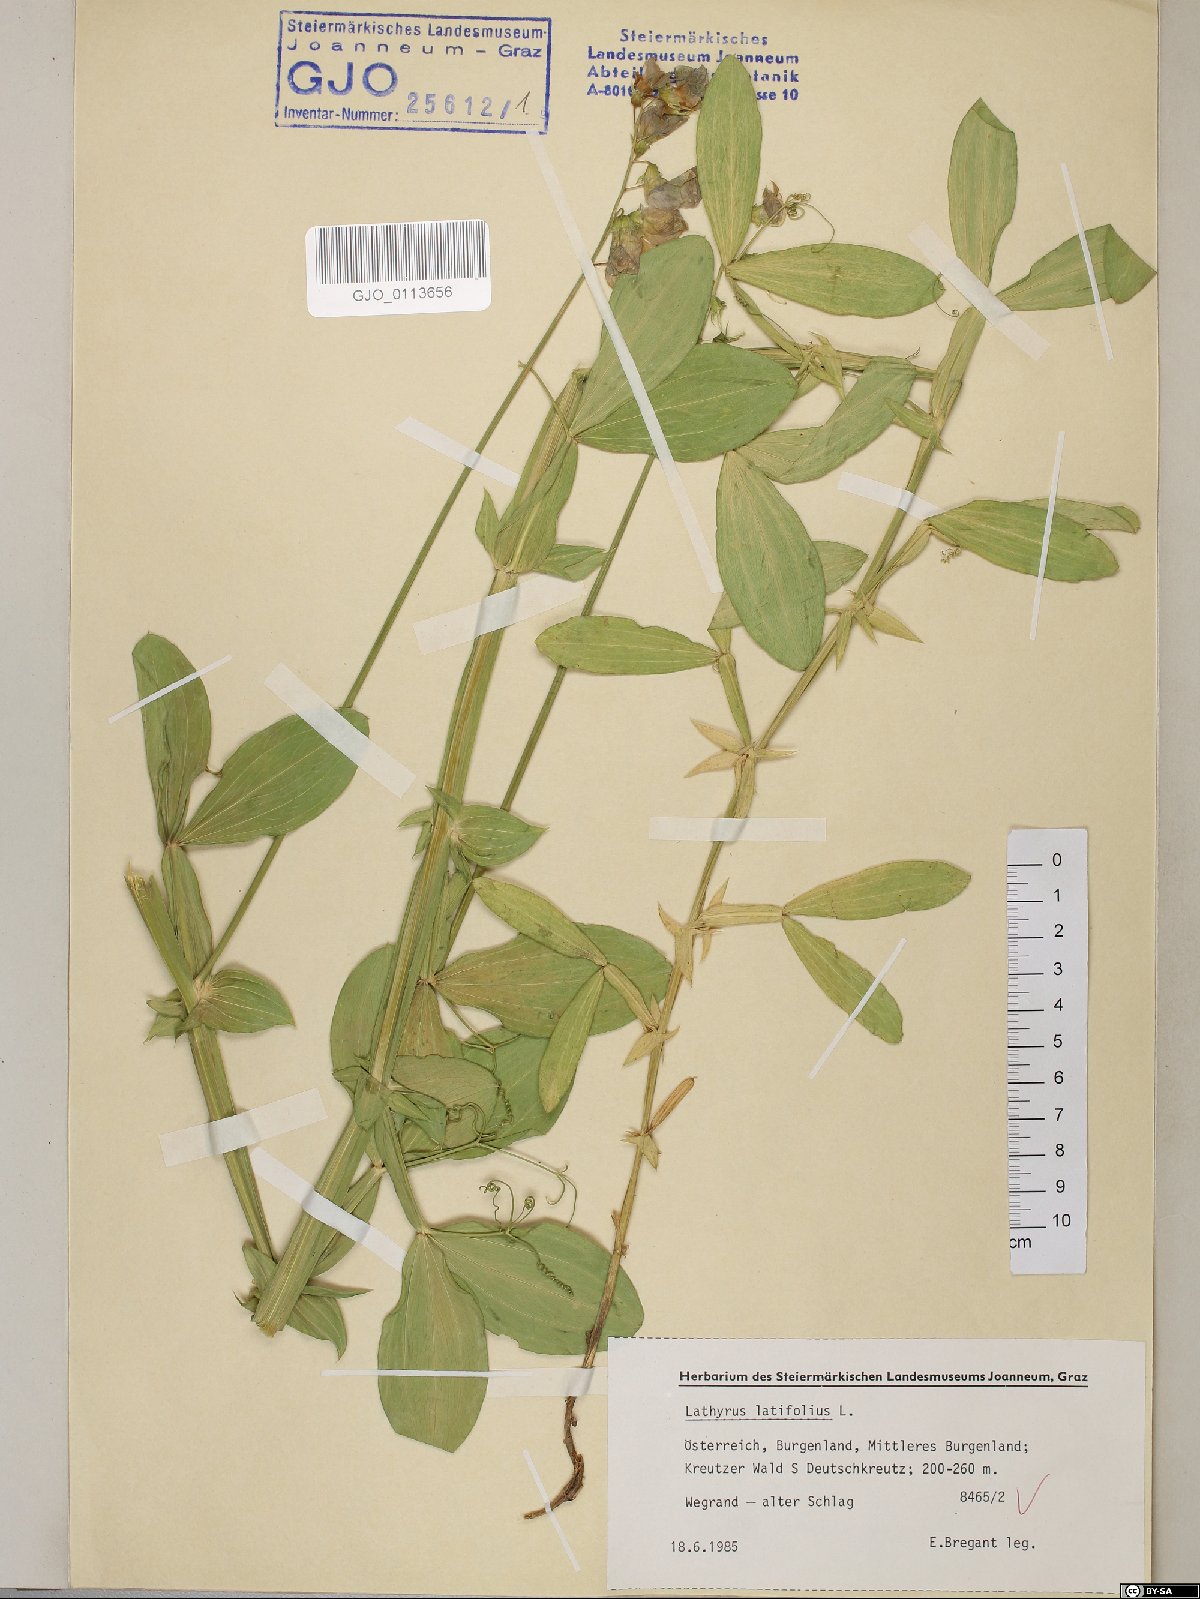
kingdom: Plantae
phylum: Tracheophyta
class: Magnoliopsida
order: Fabales
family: Fabaceae
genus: Lathyrus
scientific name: Lathyrus latifolius
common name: Perennial pea
